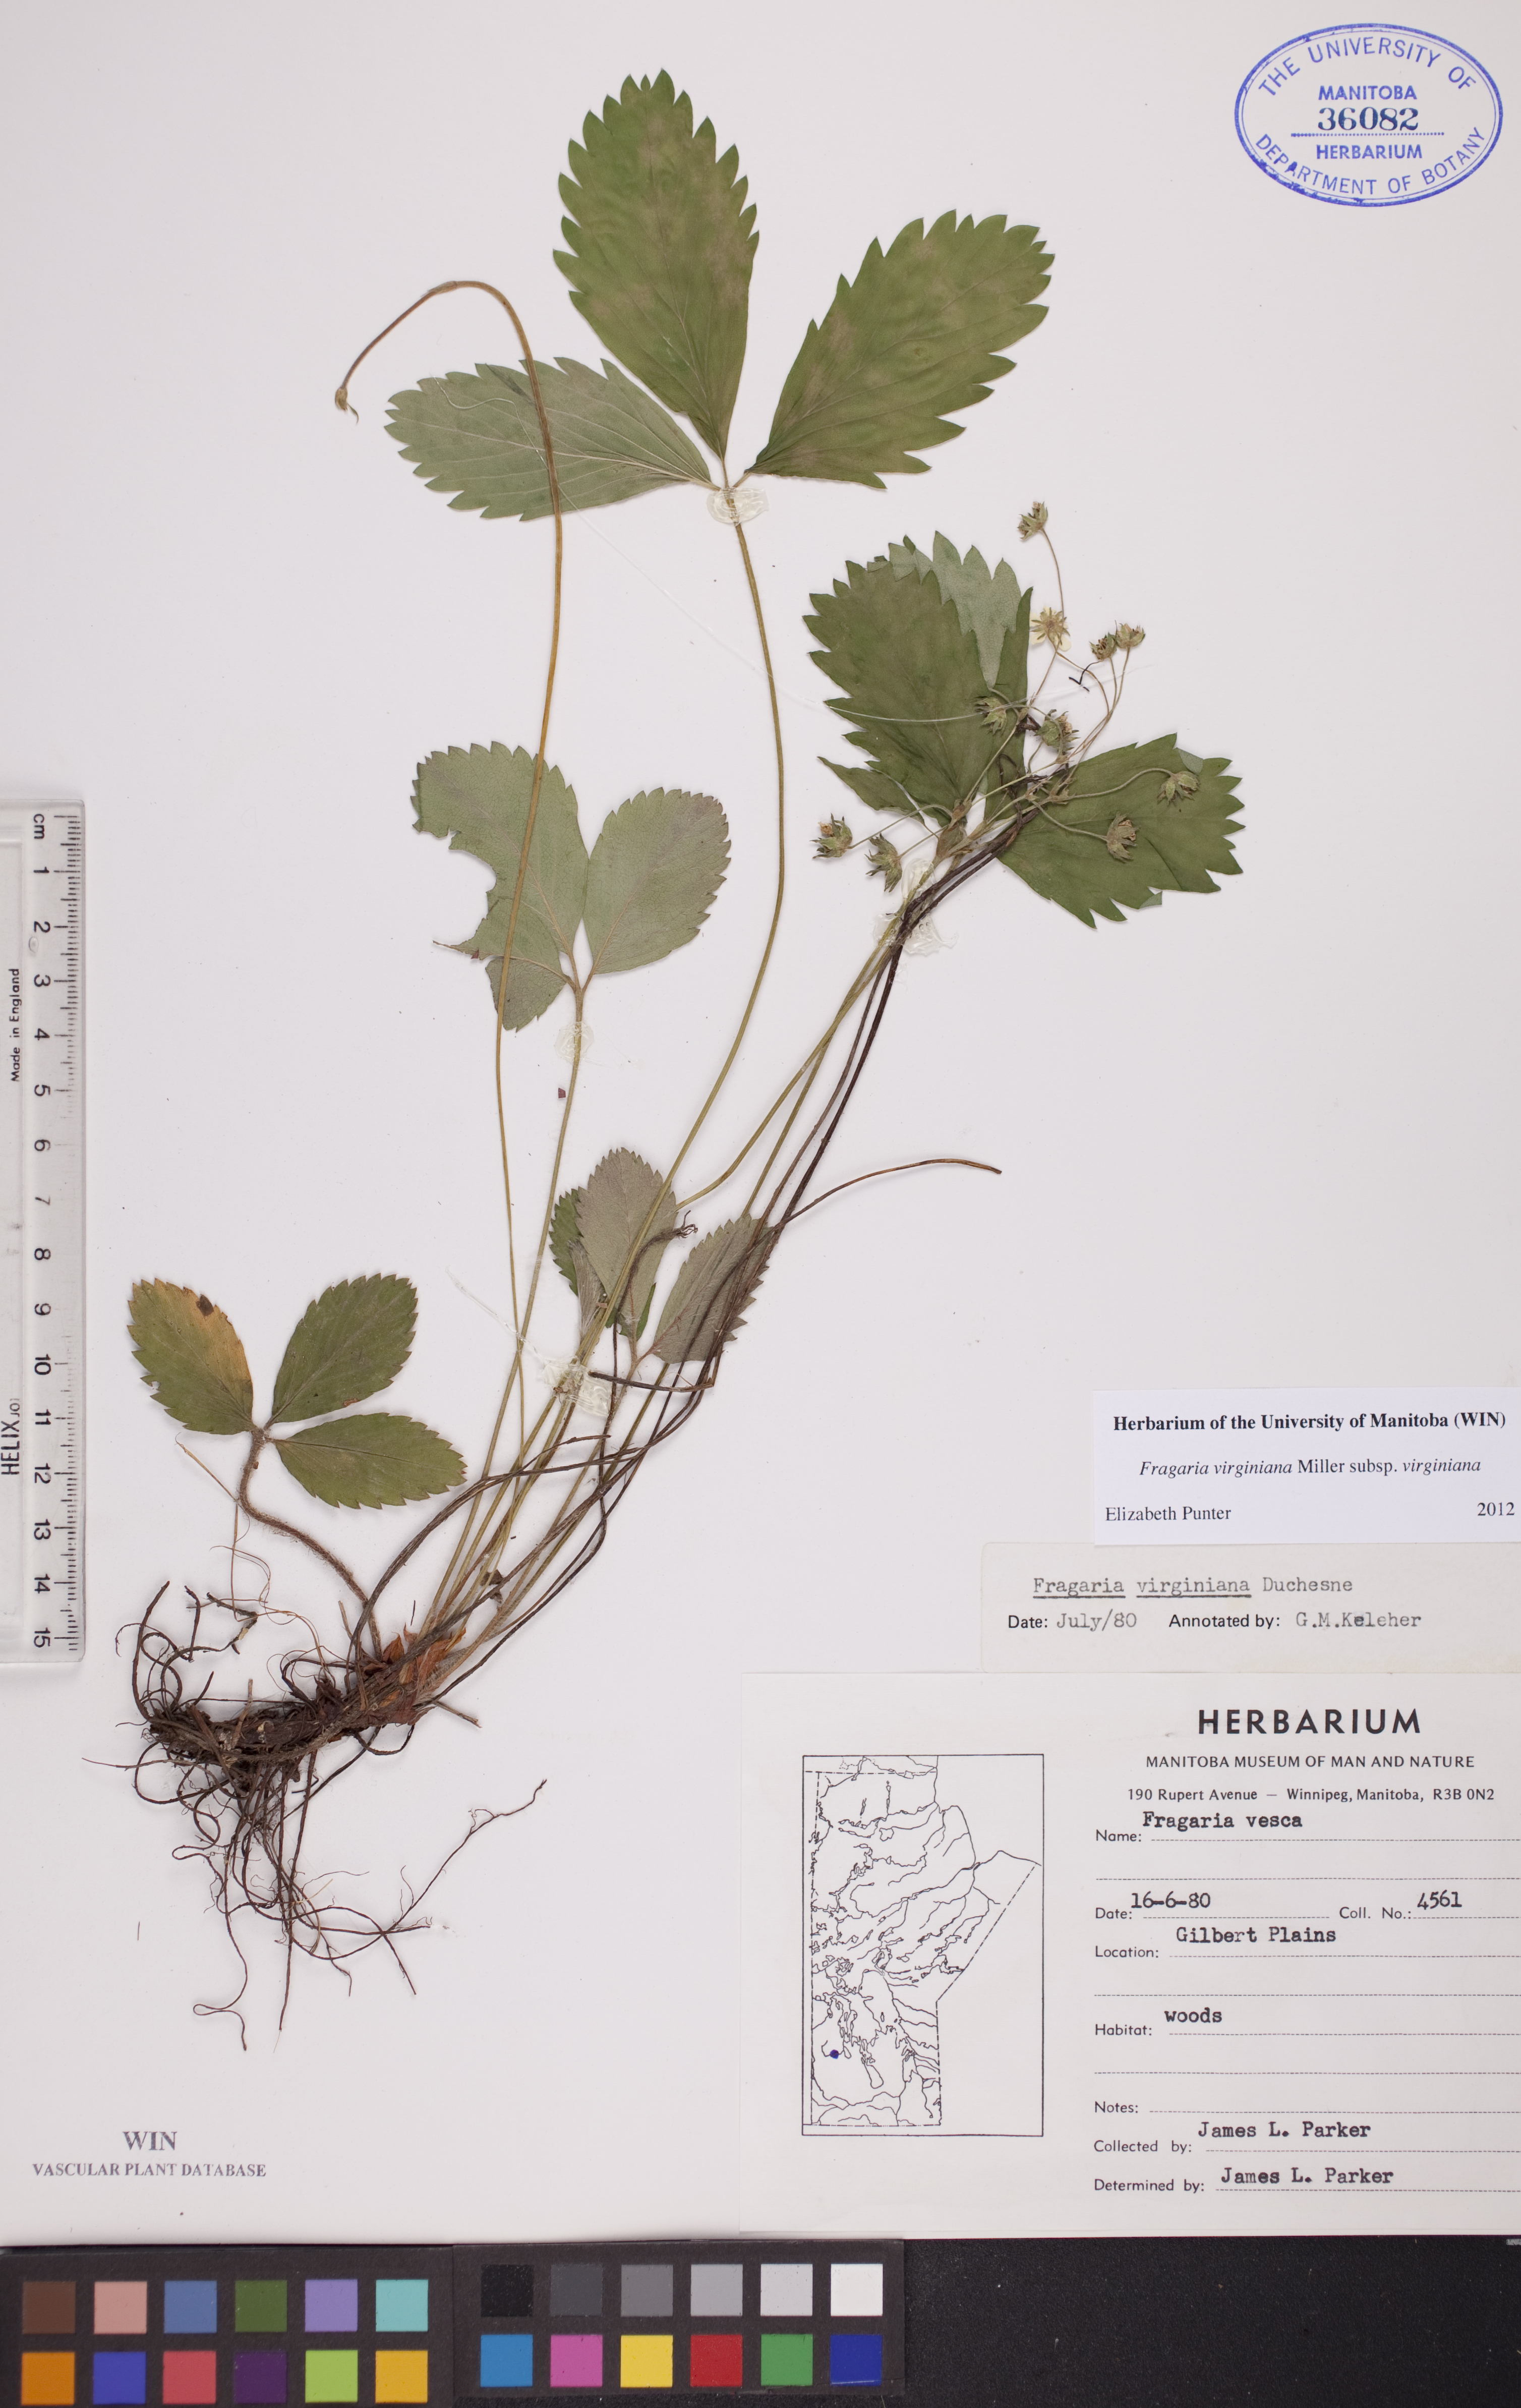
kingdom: Plantae
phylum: Tracheophyta
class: Magnoliopsida
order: Rosales
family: Rosaceae
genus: Fragaria
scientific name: Fragaria virginiana
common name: Thickleaved wild strawberry
